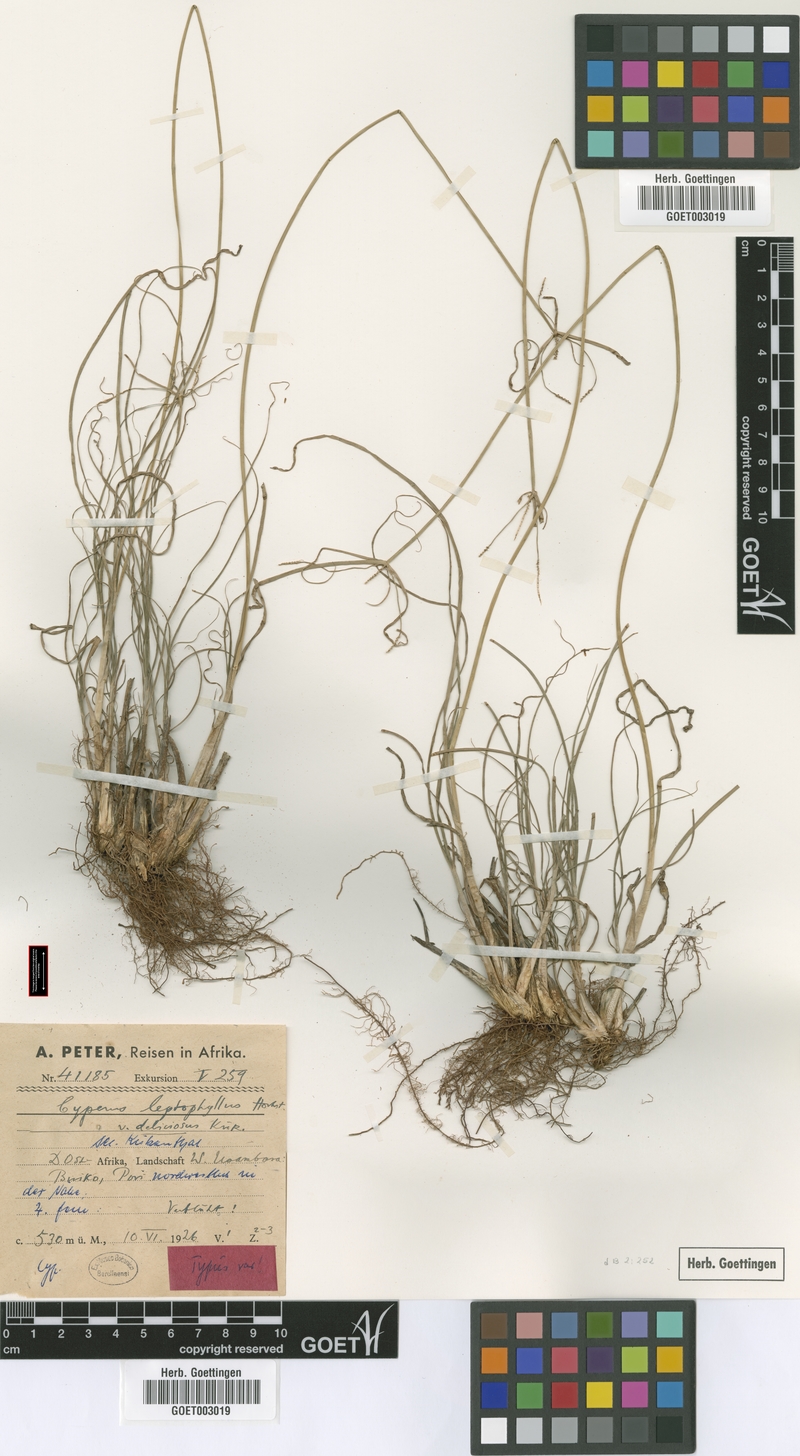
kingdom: Plantae
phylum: Tracheophyta
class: Liliopsida
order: Poales
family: Cyperaceae
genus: Cyperus
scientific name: Cyperus amauropus
